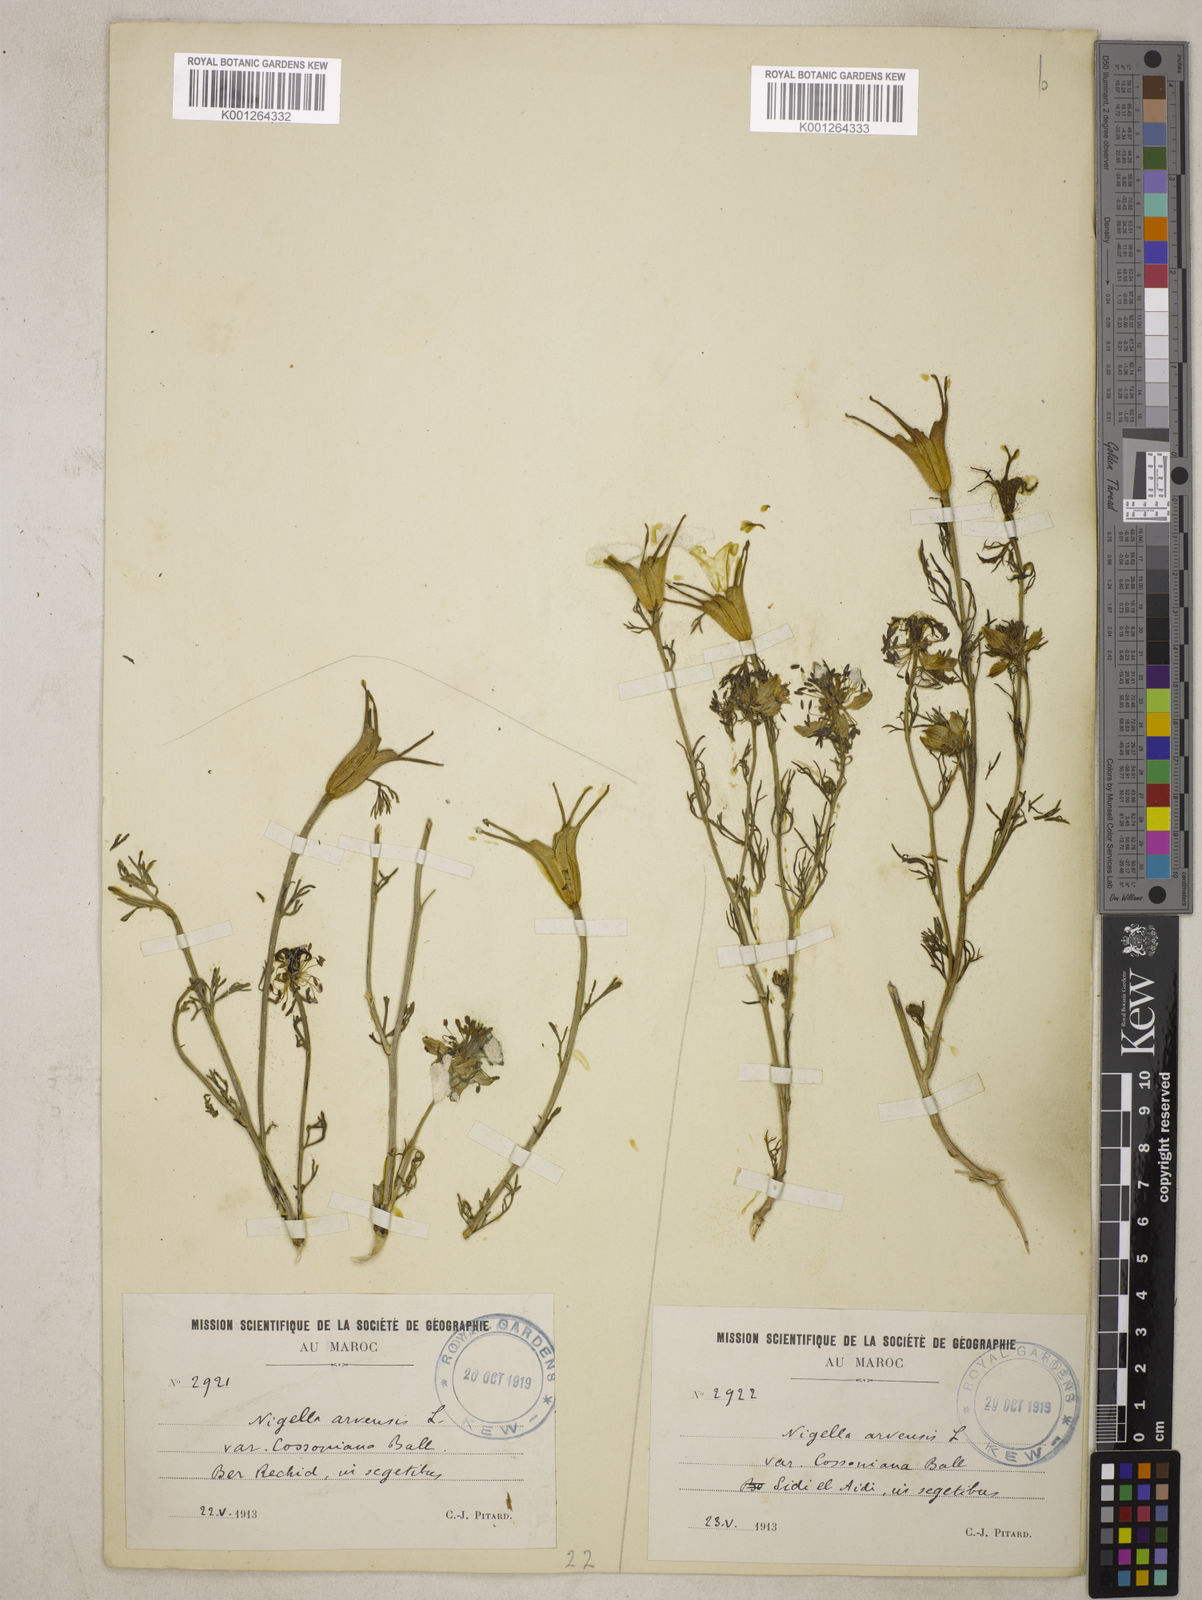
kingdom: Plantae
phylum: Tracheophyta
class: Magnoliopsida
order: Ranunculales
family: Ranunculaceae
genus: Nigella
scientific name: Nigella arvensis
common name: Wild fennel-flower
